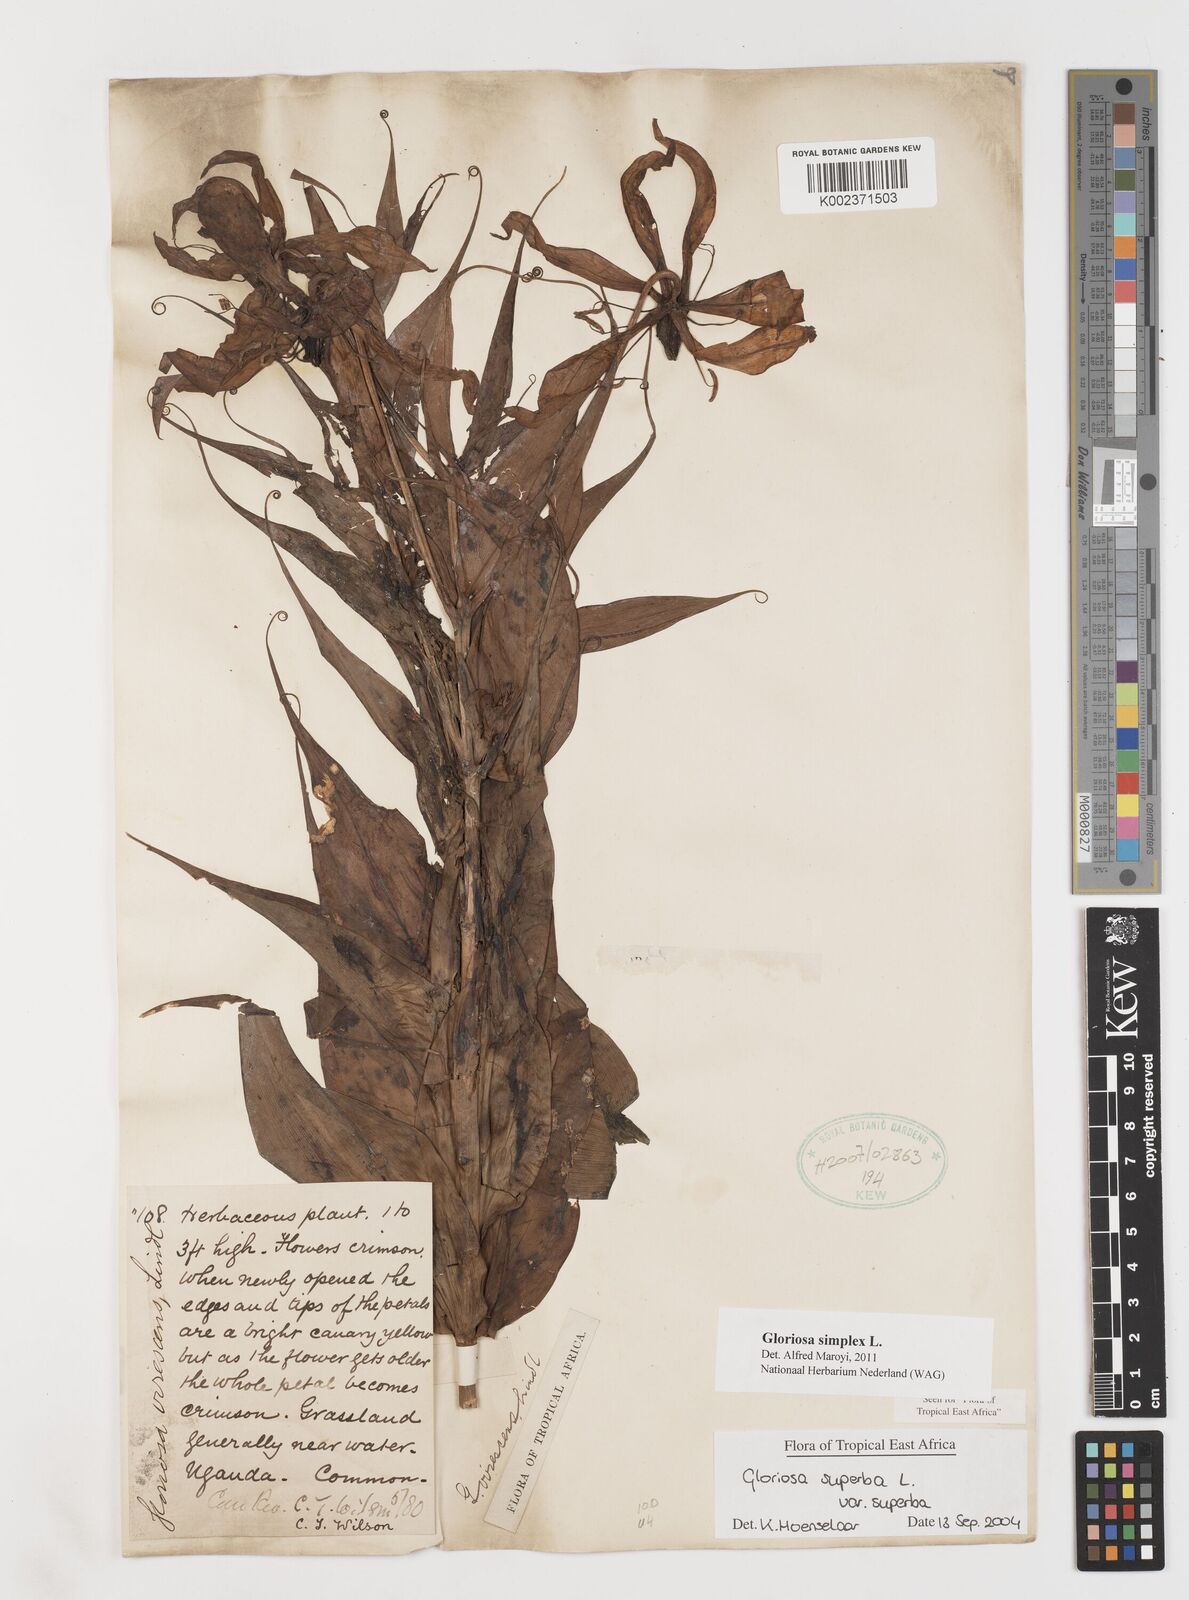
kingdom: Plantae
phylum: Tracheophyta
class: Liliopsida
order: Liliales
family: Colchicaceae
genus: Gloriosa
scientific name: Gloriosa simplex
